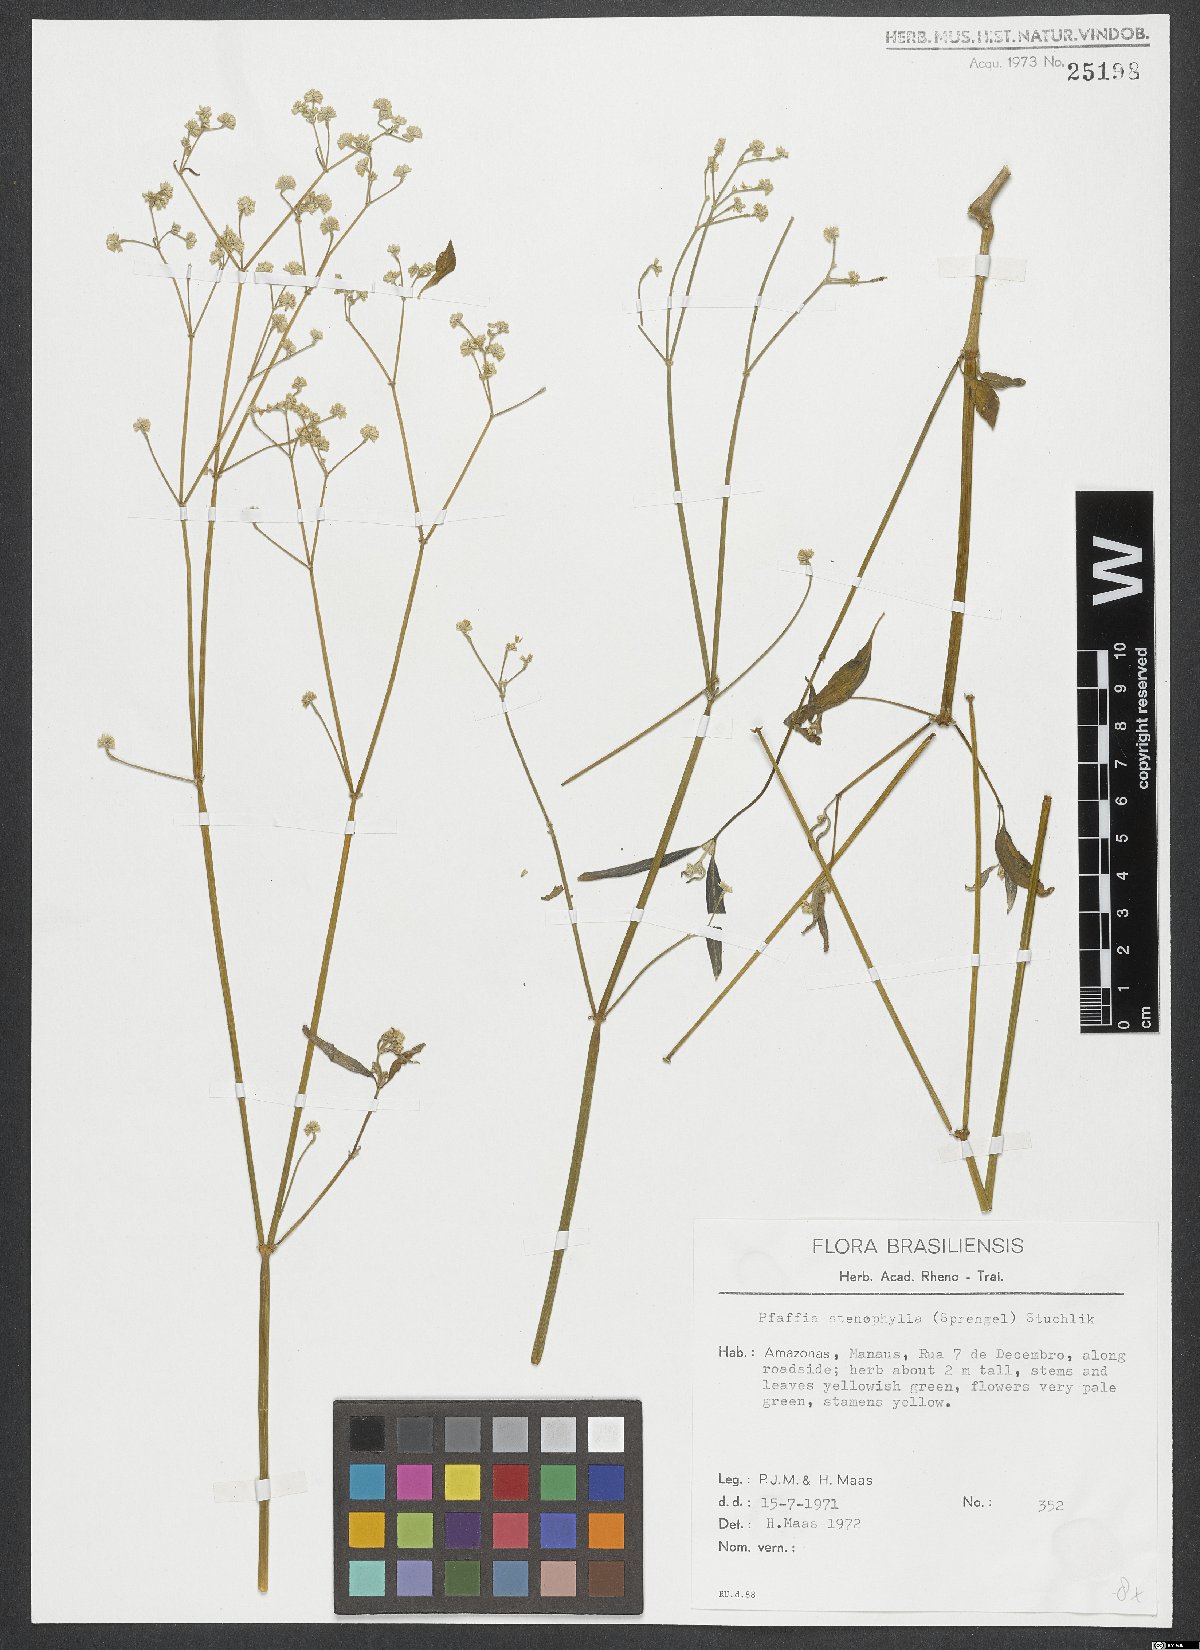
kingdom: Plantae
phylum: Tracheophyta
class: Magnoliopsida
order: Caryophyllales
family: Amaranthaceae
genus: Pfaffia
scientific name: Pfaffia glomerata
